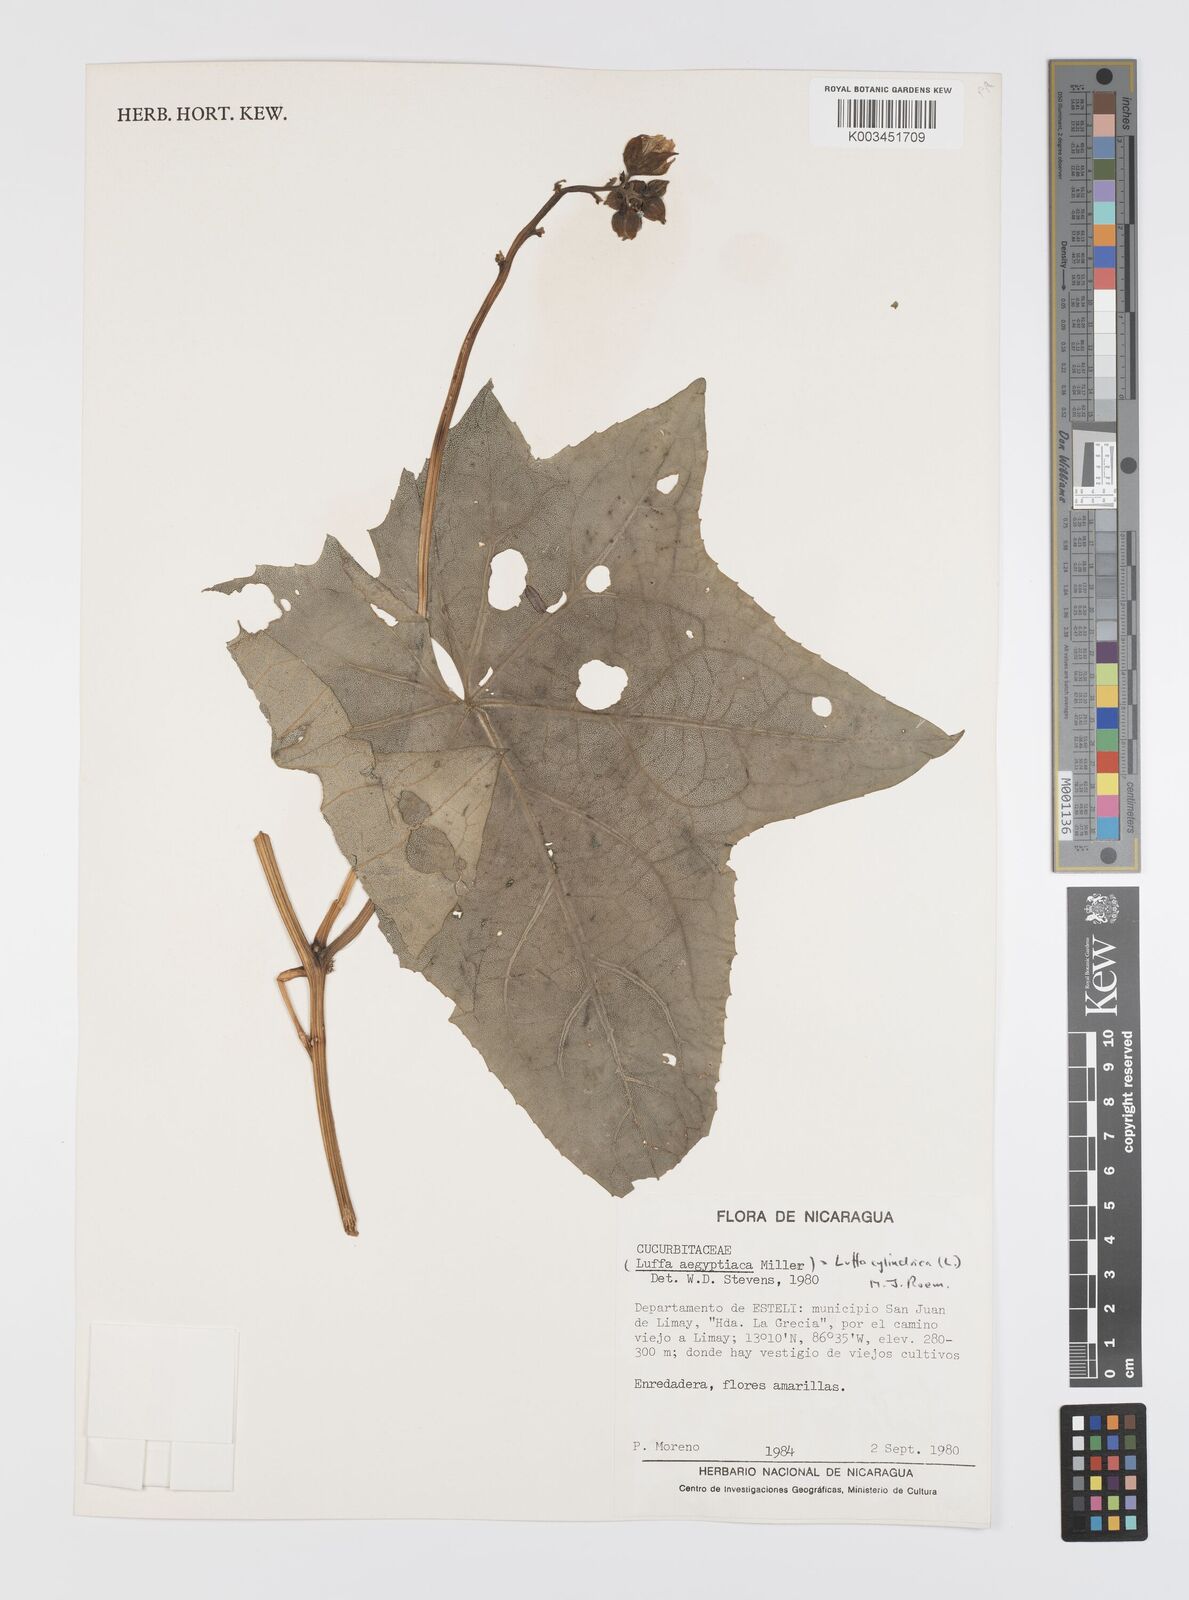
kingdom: Plantae
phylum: Tracheophyta
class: Magnoliopsida
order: Cucurbitales
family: Cucurbitaceae
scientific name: Cucurbitaceae
